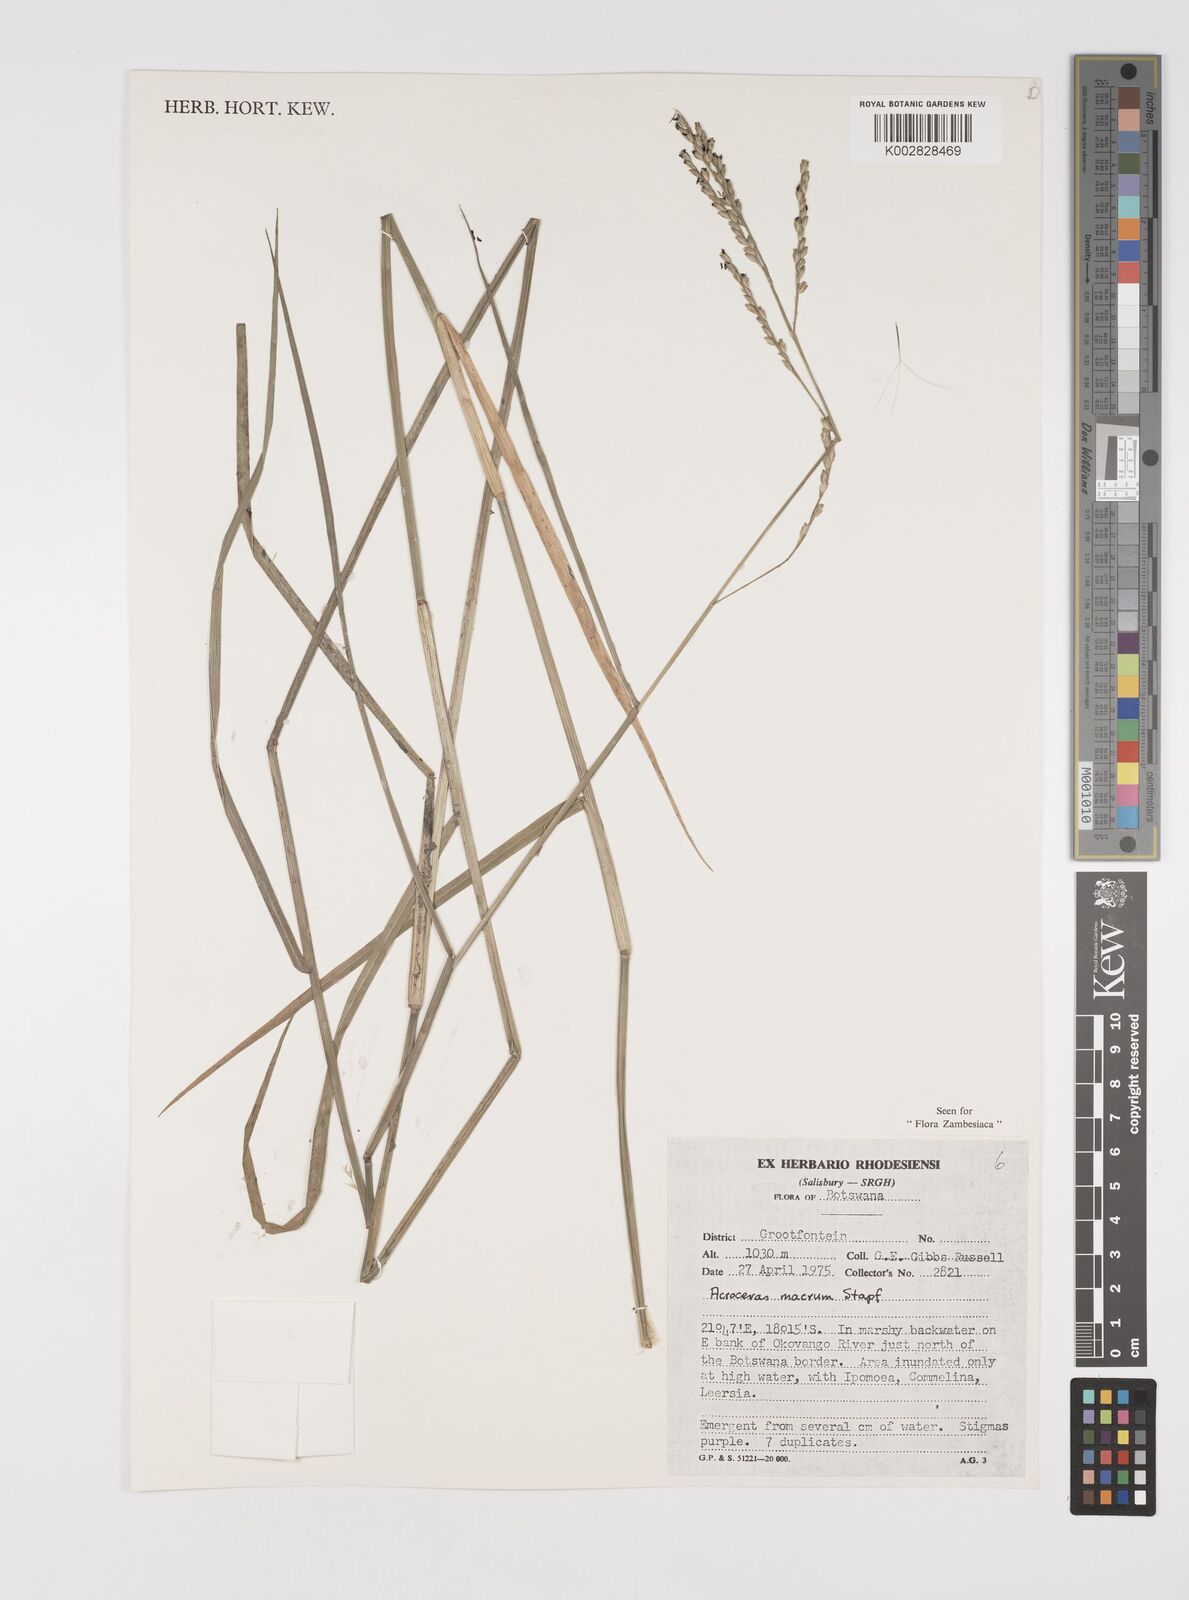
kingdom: Plantae
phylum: Tracheophyta
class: Liliopsida
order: Poales
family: Poaceae
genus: Acroceras
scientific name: Acroceras macrum
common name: Nyl grass
